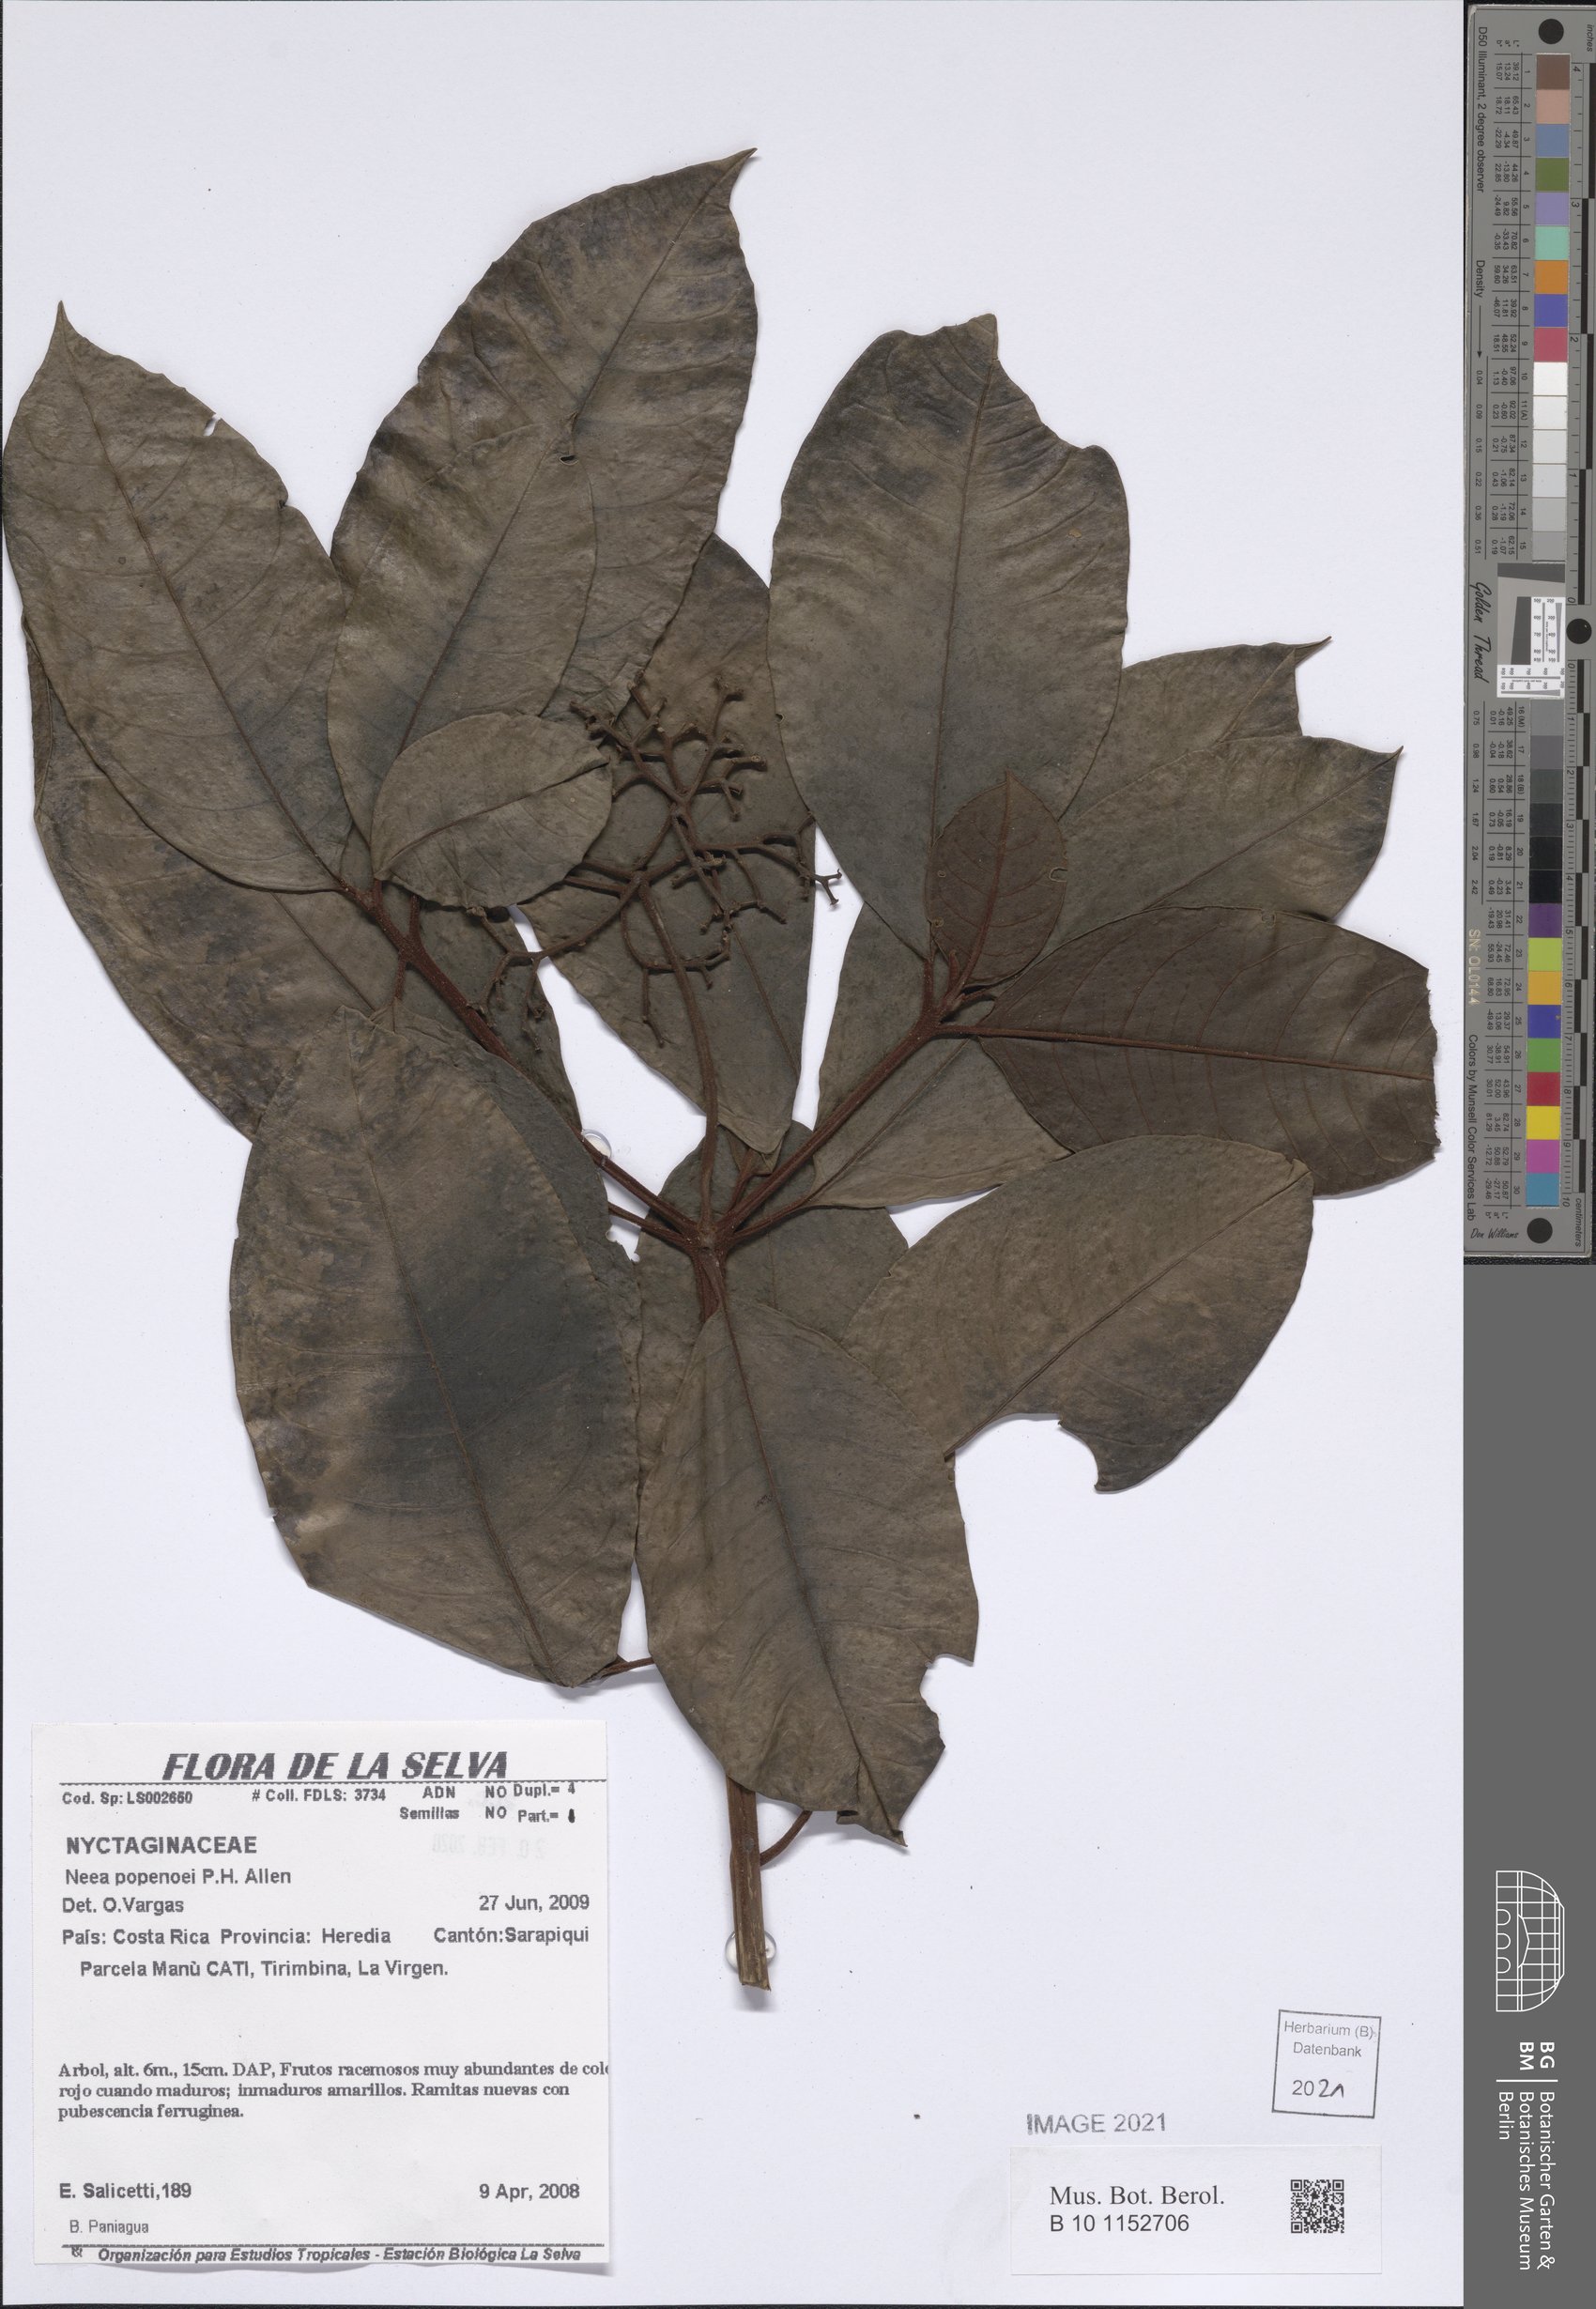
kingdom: Plantae
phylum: Tracheophyta
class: Magnoliopsida
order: Caryophyllales
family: Nyctaginaceae
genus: Neea
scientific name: Neea psychotrioides
